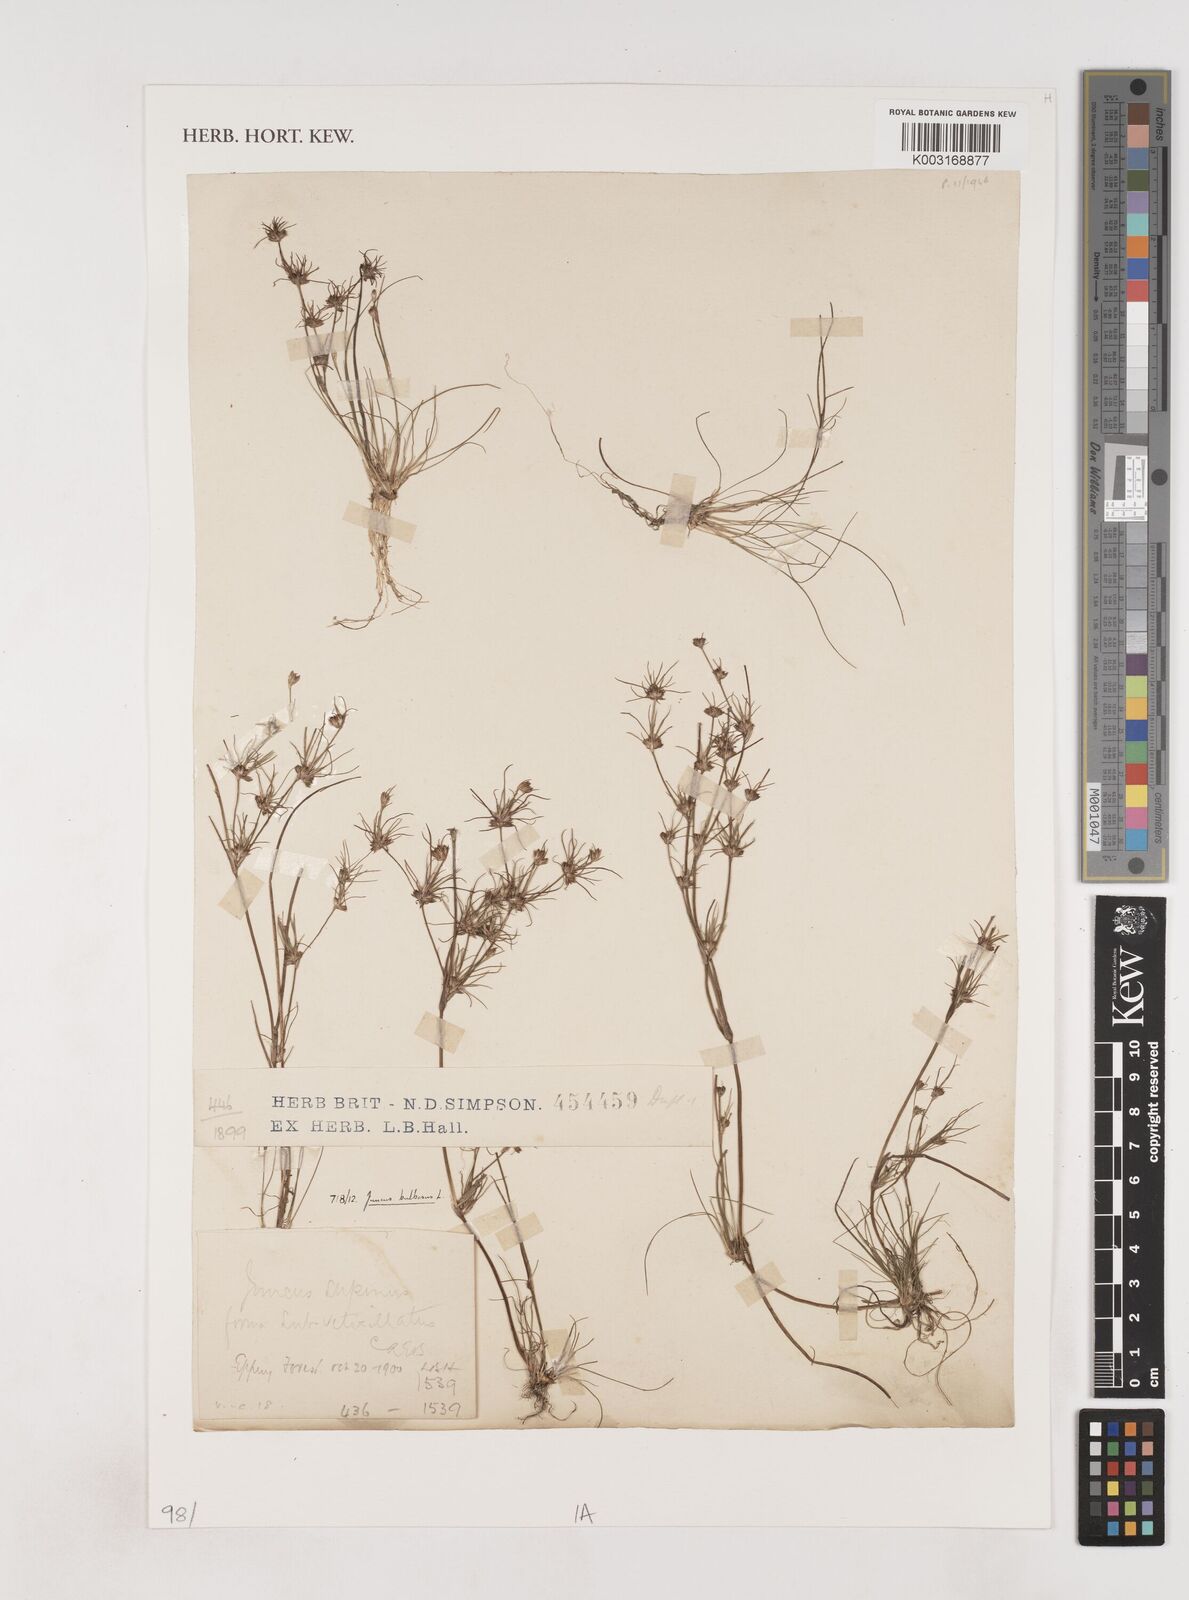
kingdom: Plantae
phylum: Tracheophyta
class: Liliopsida
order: Poales
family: Juncaceae
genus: Juncus
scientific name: Juncus bulbosus
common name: Bulbous rush
